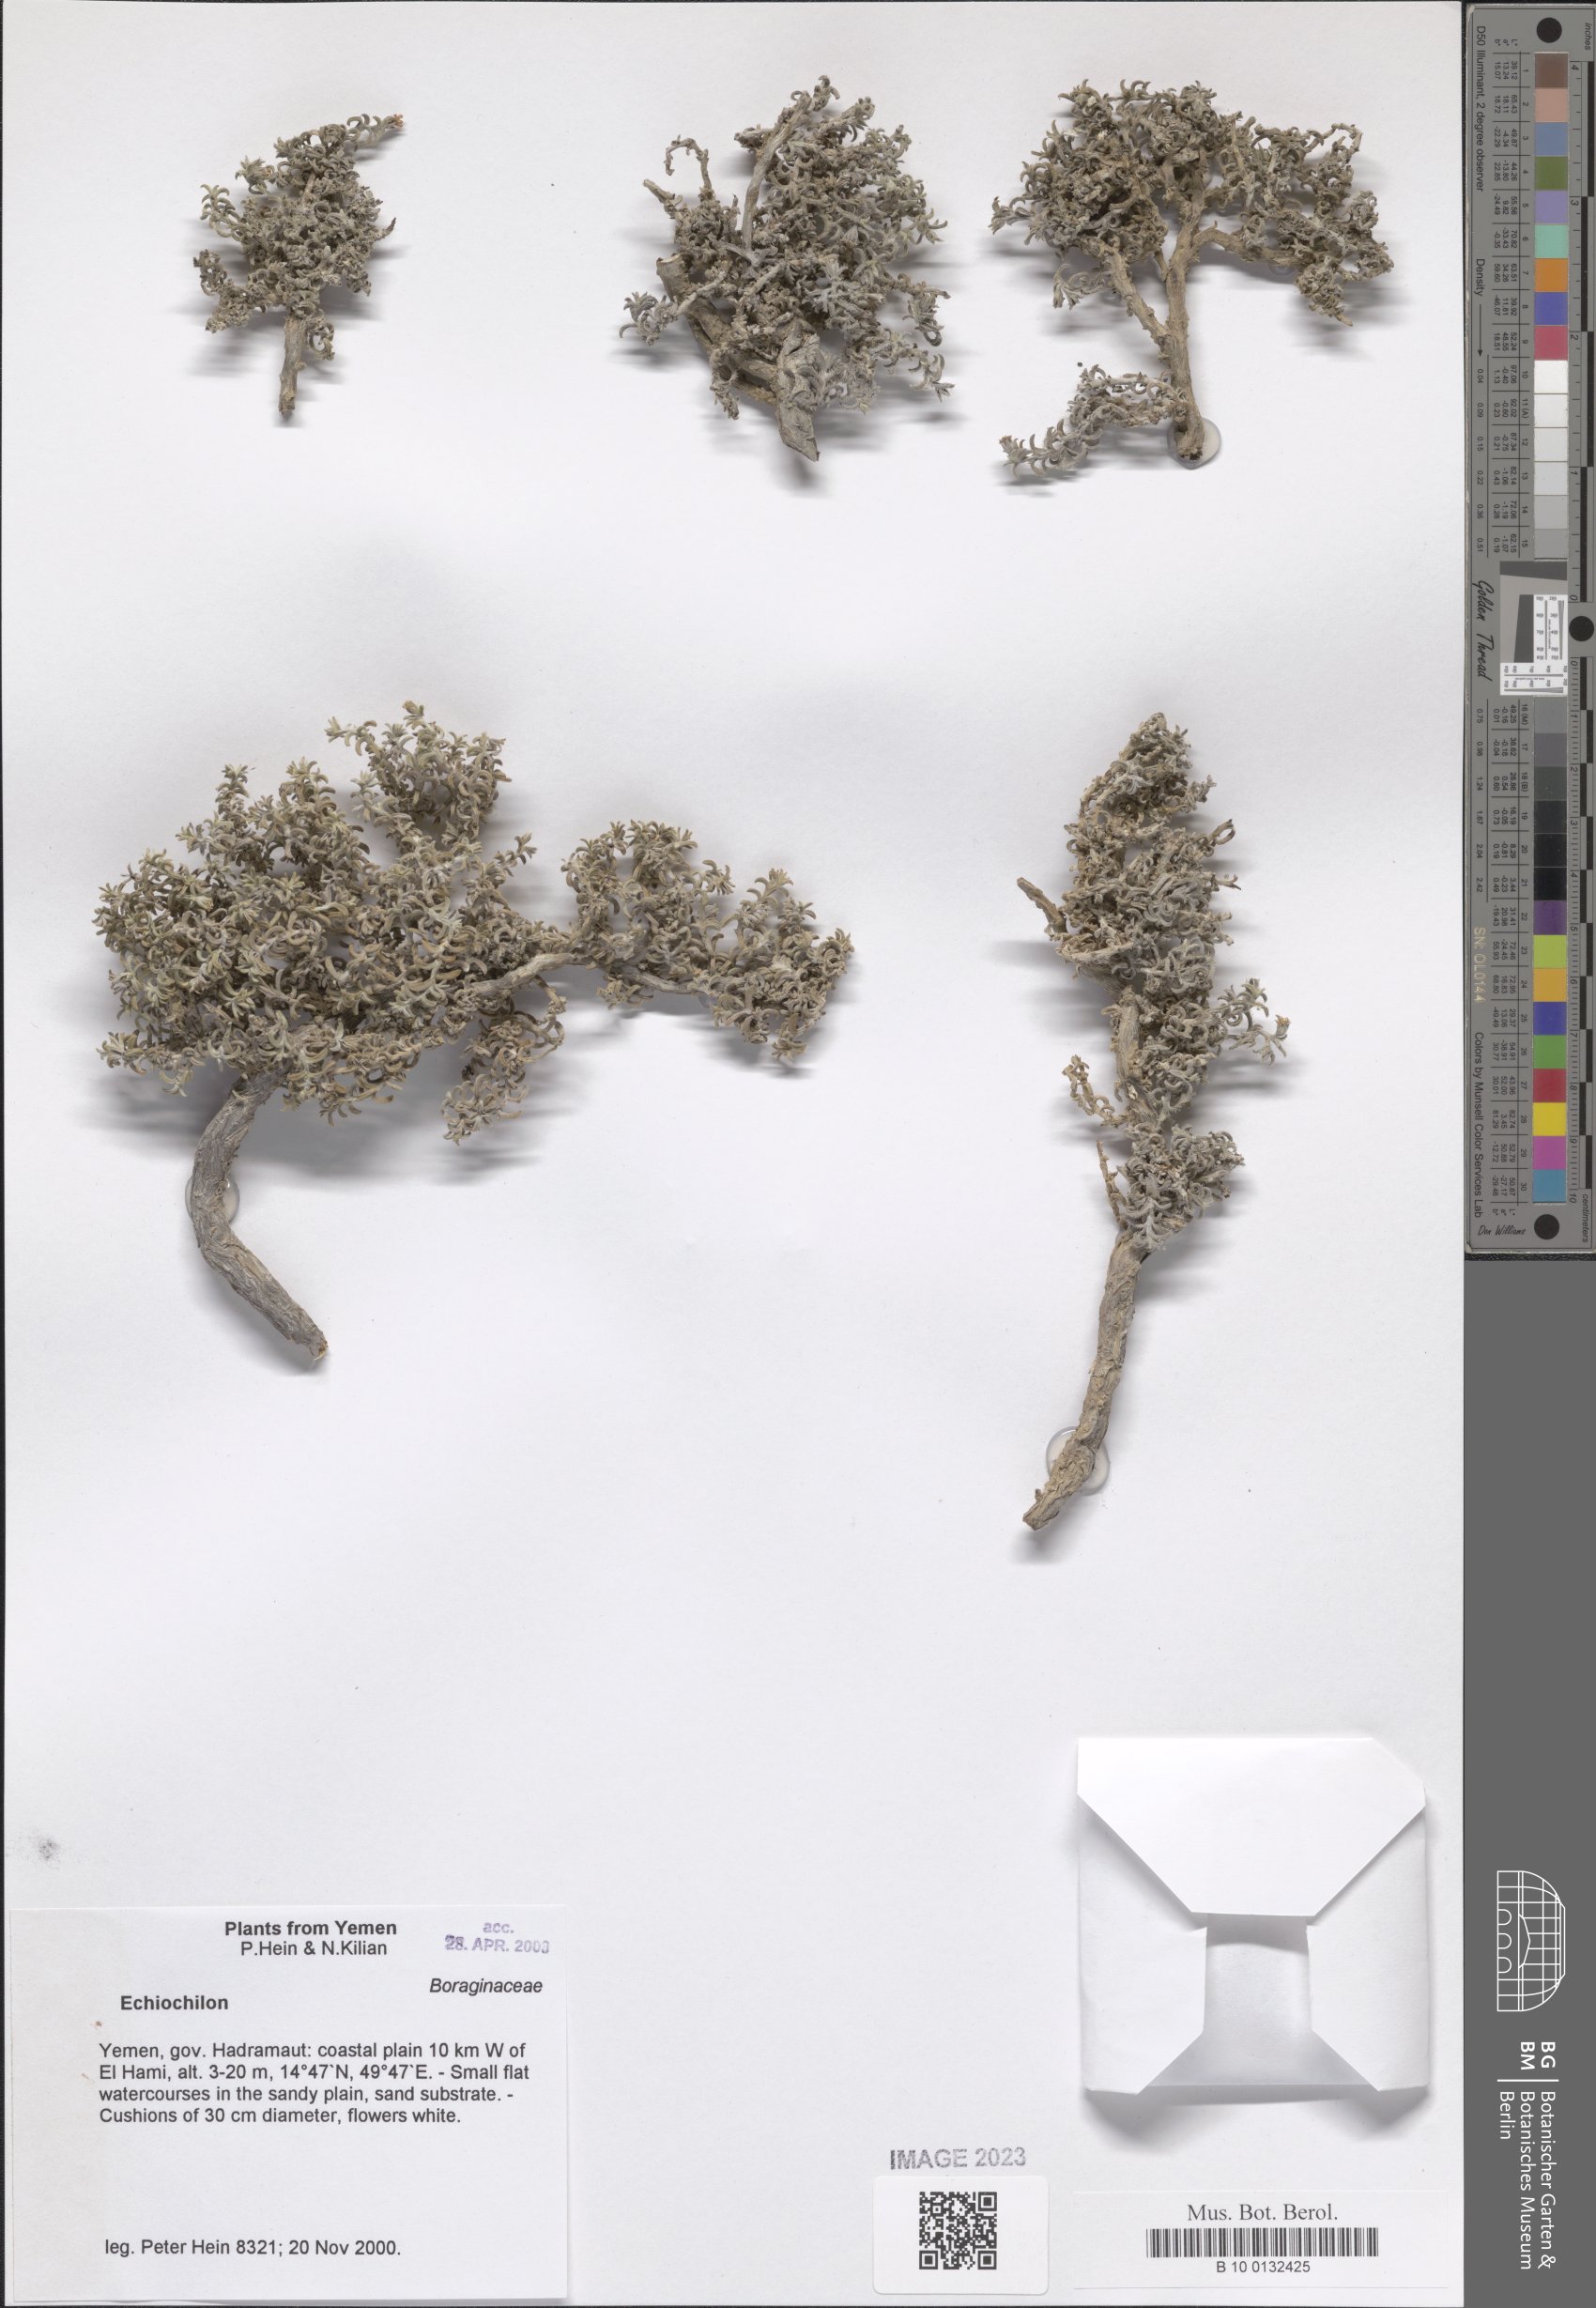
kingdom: Plantae
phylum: Tracheophyta
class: Magnoliopsida
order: Boraginales
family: Boraginaceae
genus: Echiochilon
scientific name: Echiochilon
